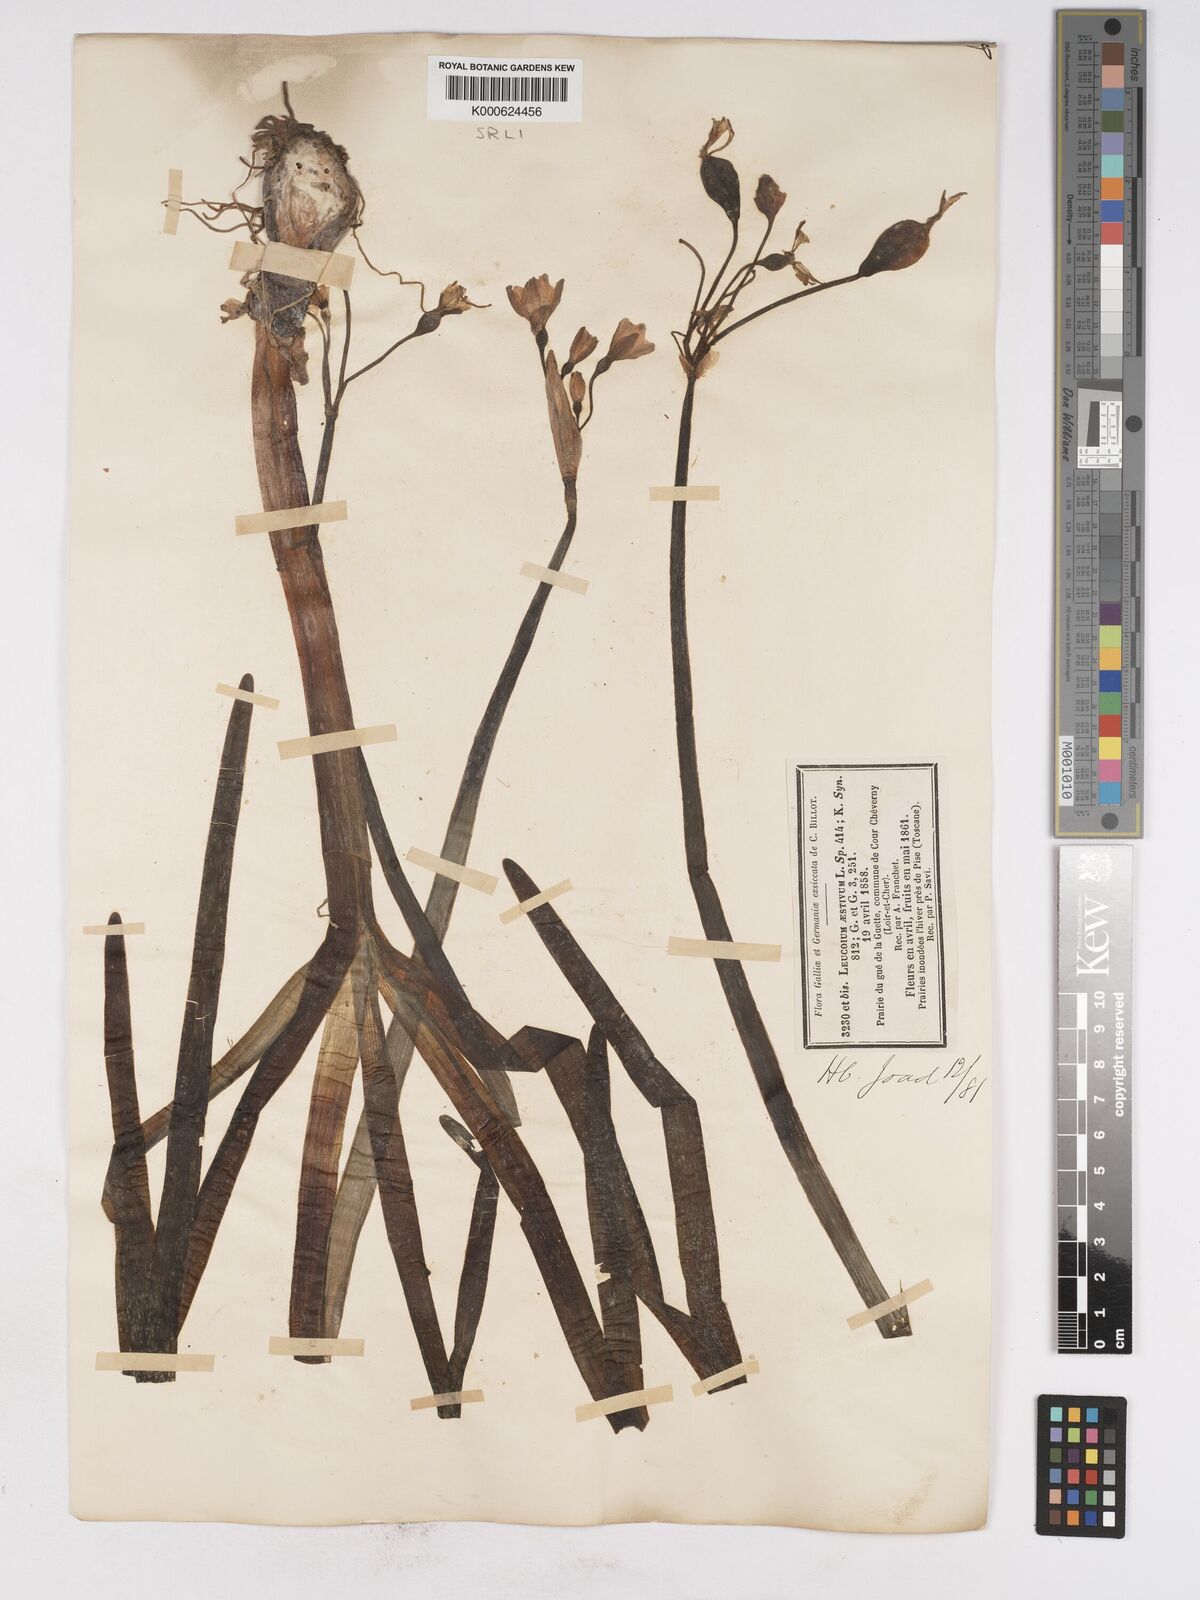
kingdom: Plantae
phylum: Tracheophyta
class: Liliopsida
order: Asparagales
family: Amaryllidaceae
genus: Leucojum
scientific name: Leucojum aestivum
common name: Summer snowflake
